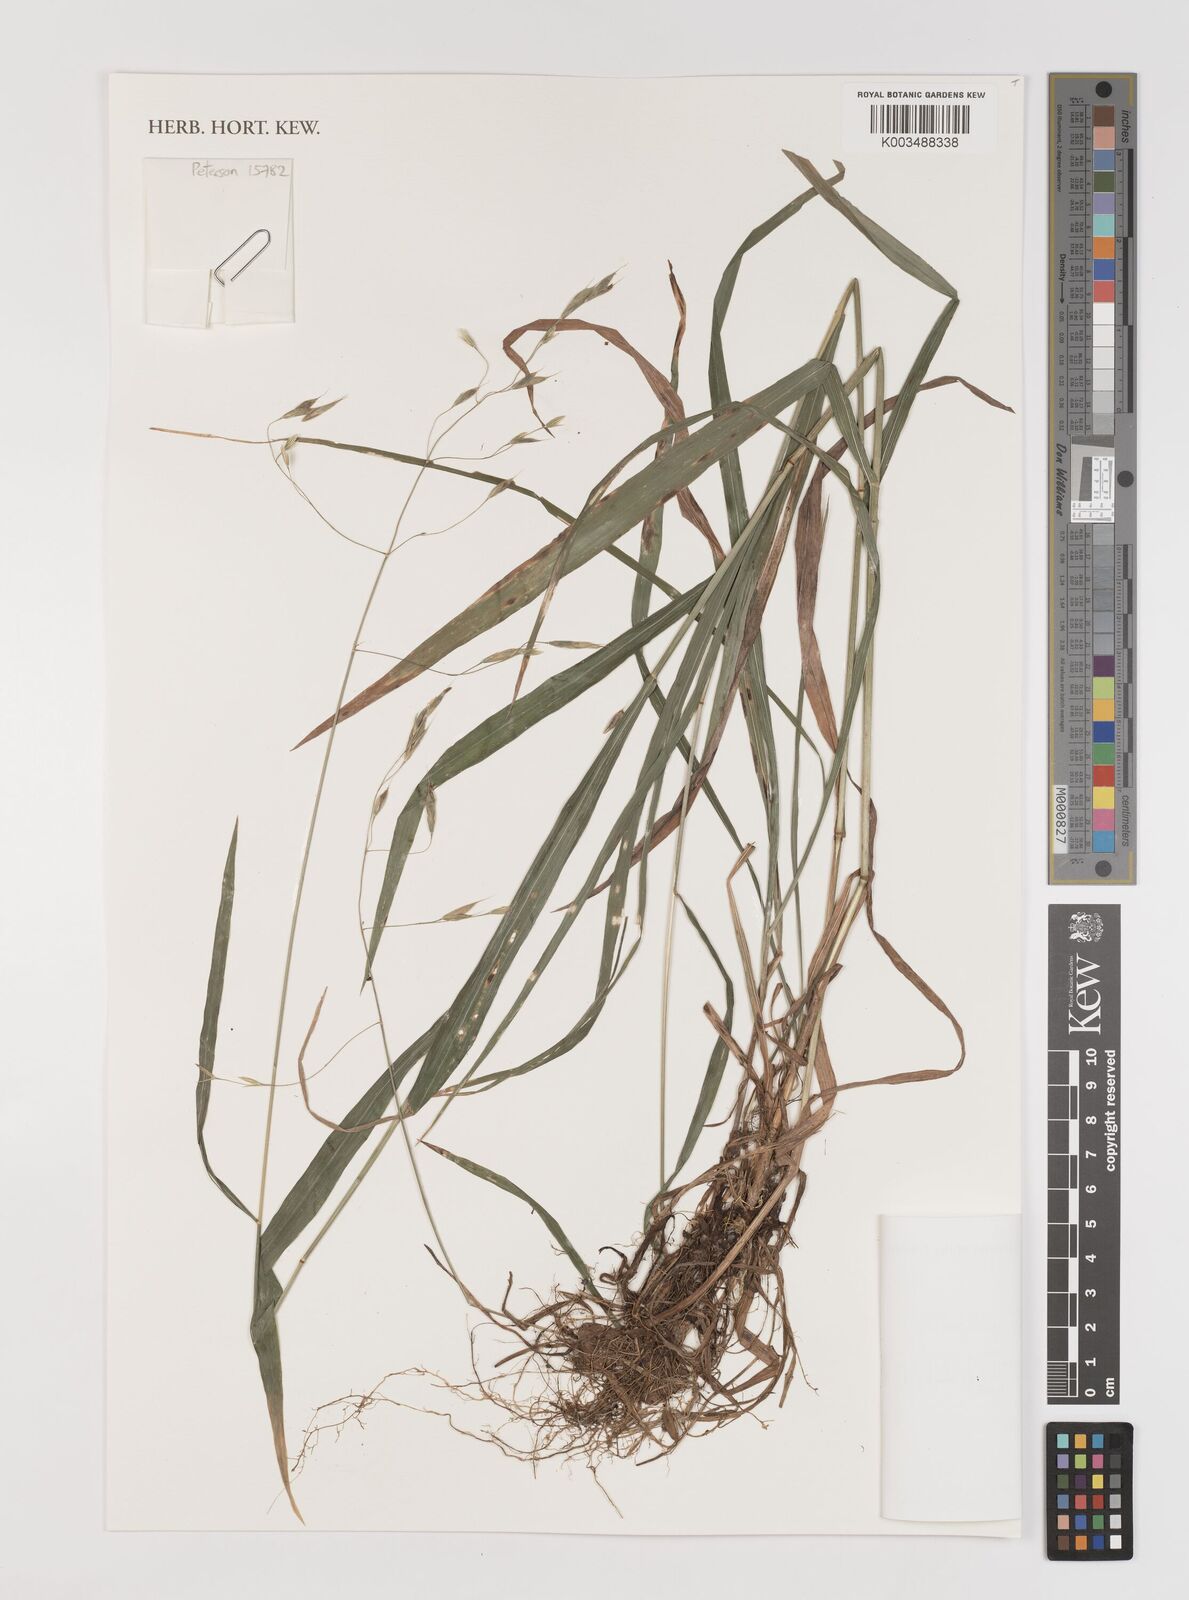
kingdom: Plantae
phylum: Tracheophyta
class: Liliopsida
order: Poales
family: Poaceae
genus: Bromus
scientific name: Bromus pubescens
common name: Hairy wood brome grass
